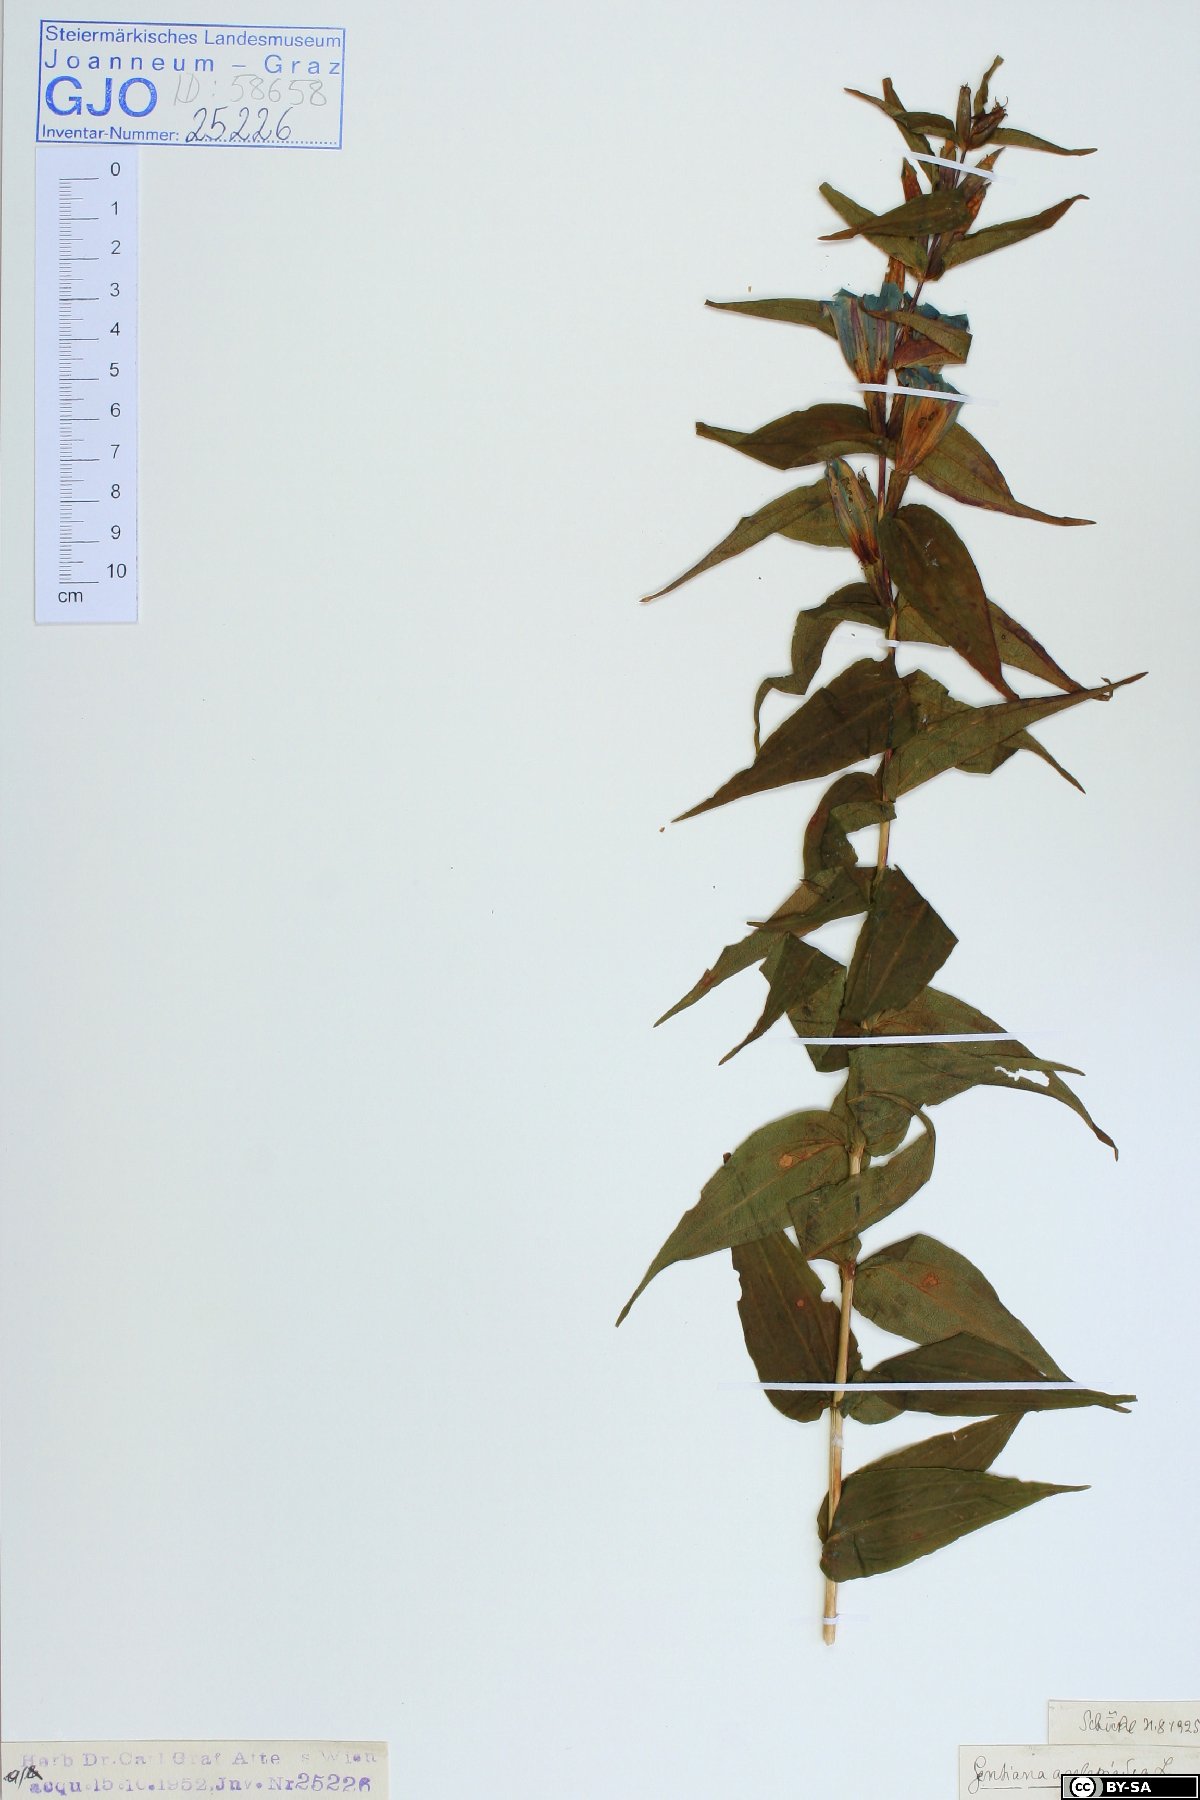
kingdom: Plantae
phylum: Tracheophyta
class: Magnoliopsida
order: Gentianales
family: Gentianaceae
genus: Gentiana
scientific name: Gentiana asclepiadea
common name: Willow gentian
